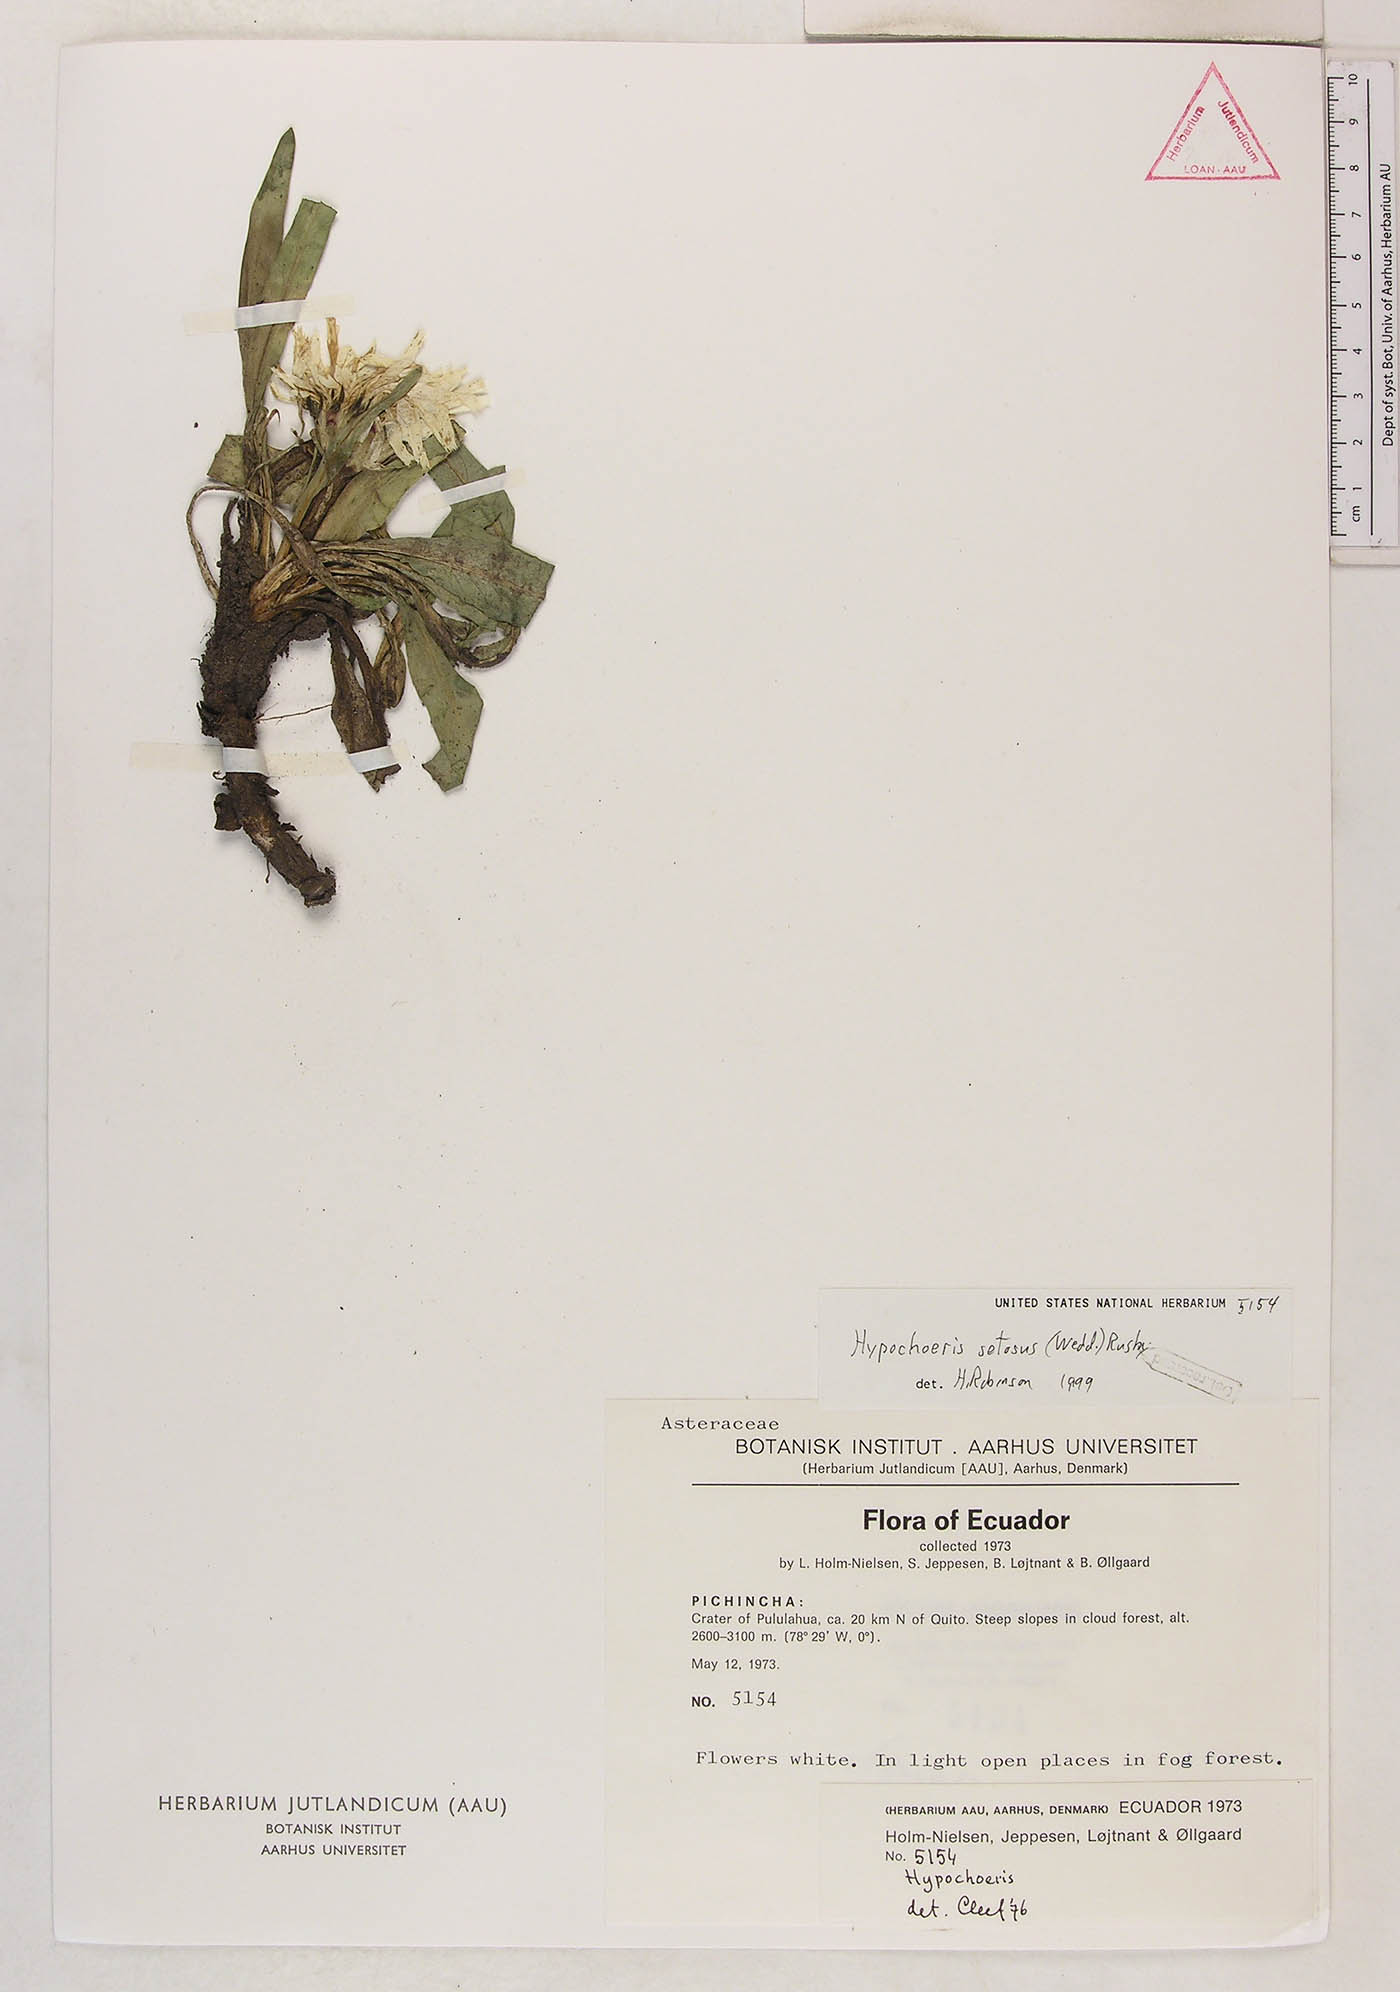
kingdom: Plantae
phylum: Tracheophyta
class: Magnoliopsida
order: Asterales
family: Asteraceae
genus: Hypochaeris
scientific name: Hypochaeris echegarayi
